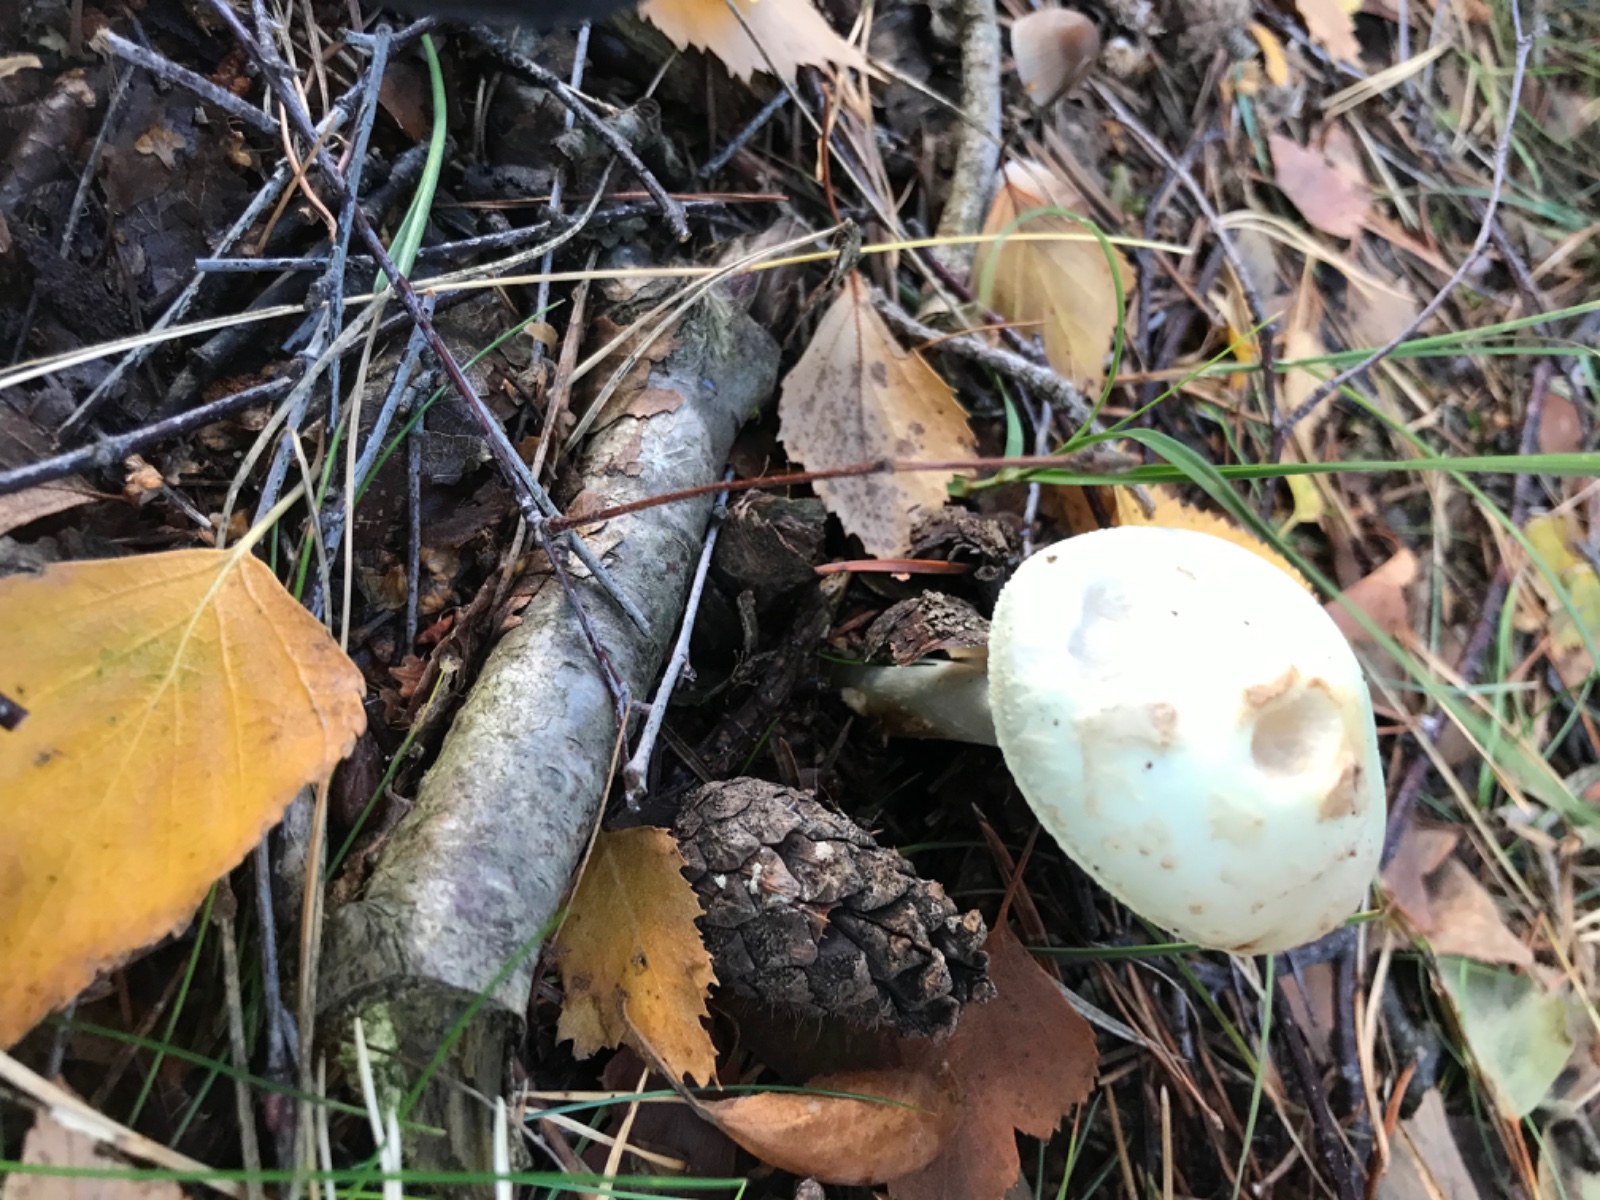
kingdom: Fungi
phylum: Basidiomycota
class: Agaricomycetes
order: Agaricales
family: Amanitaceae
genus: Amanita
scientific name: Amanita citrina
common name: kugleknoldet fluesvamp
